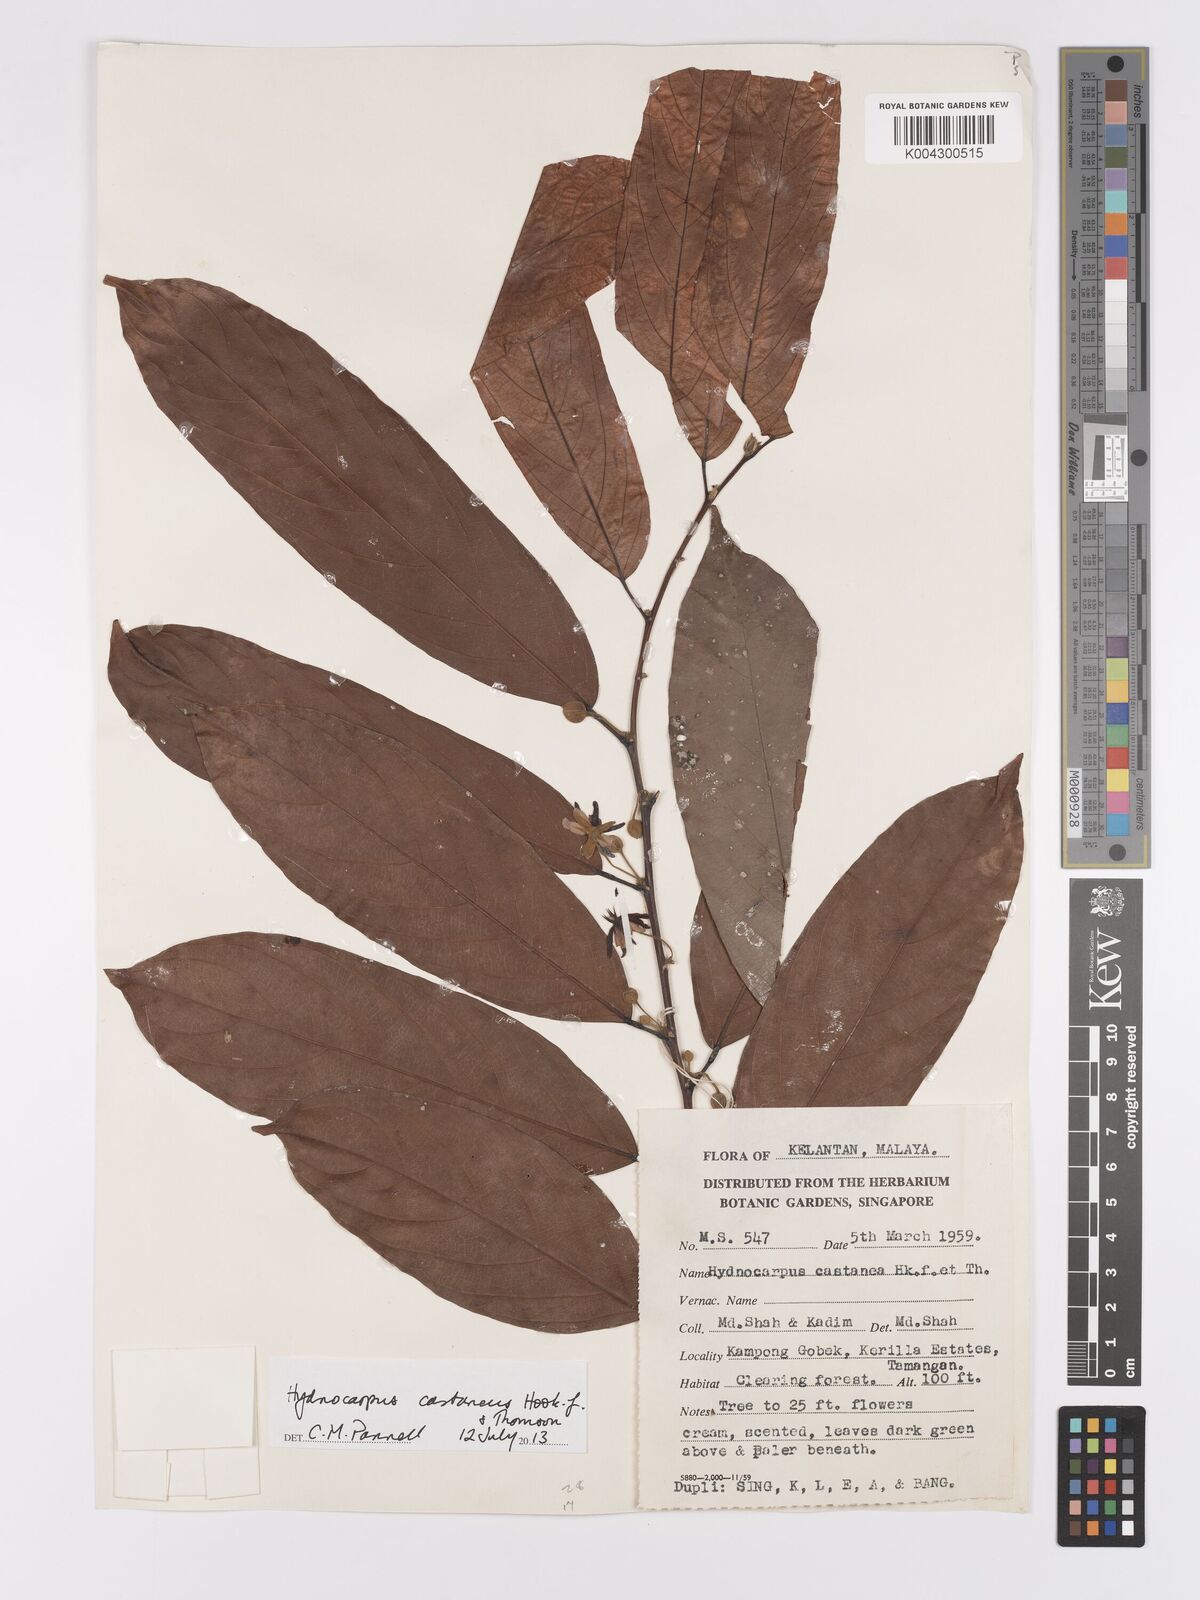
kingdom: Plantae
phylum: Tracheophyta
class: Magnoliopsida
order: Malpighiales
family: Achariaceae
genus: Hydnocarpus
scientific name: Hydnocarpus castaneus
